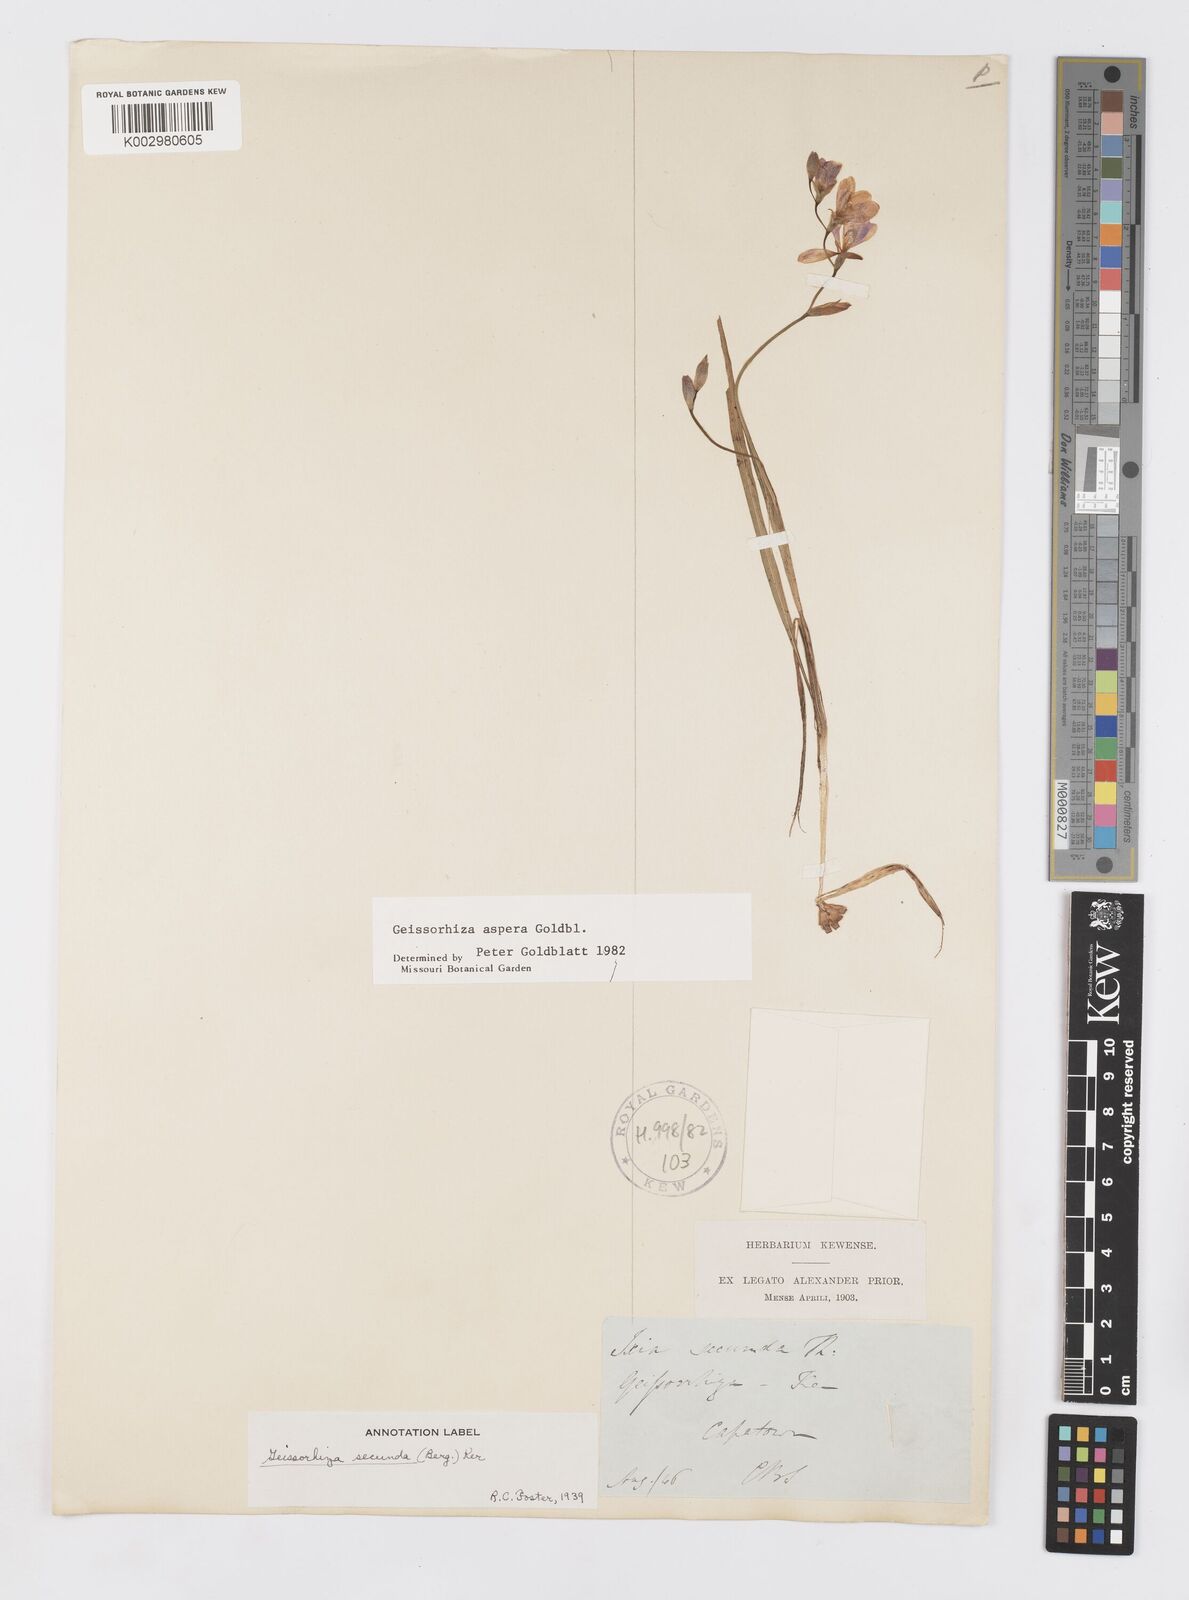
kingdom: Plantae
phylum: Tracheophyta
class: Liliopsida
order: Asparagales
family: Iridaceae
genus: Geissorhiza
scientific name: Geissorhiza aspera
